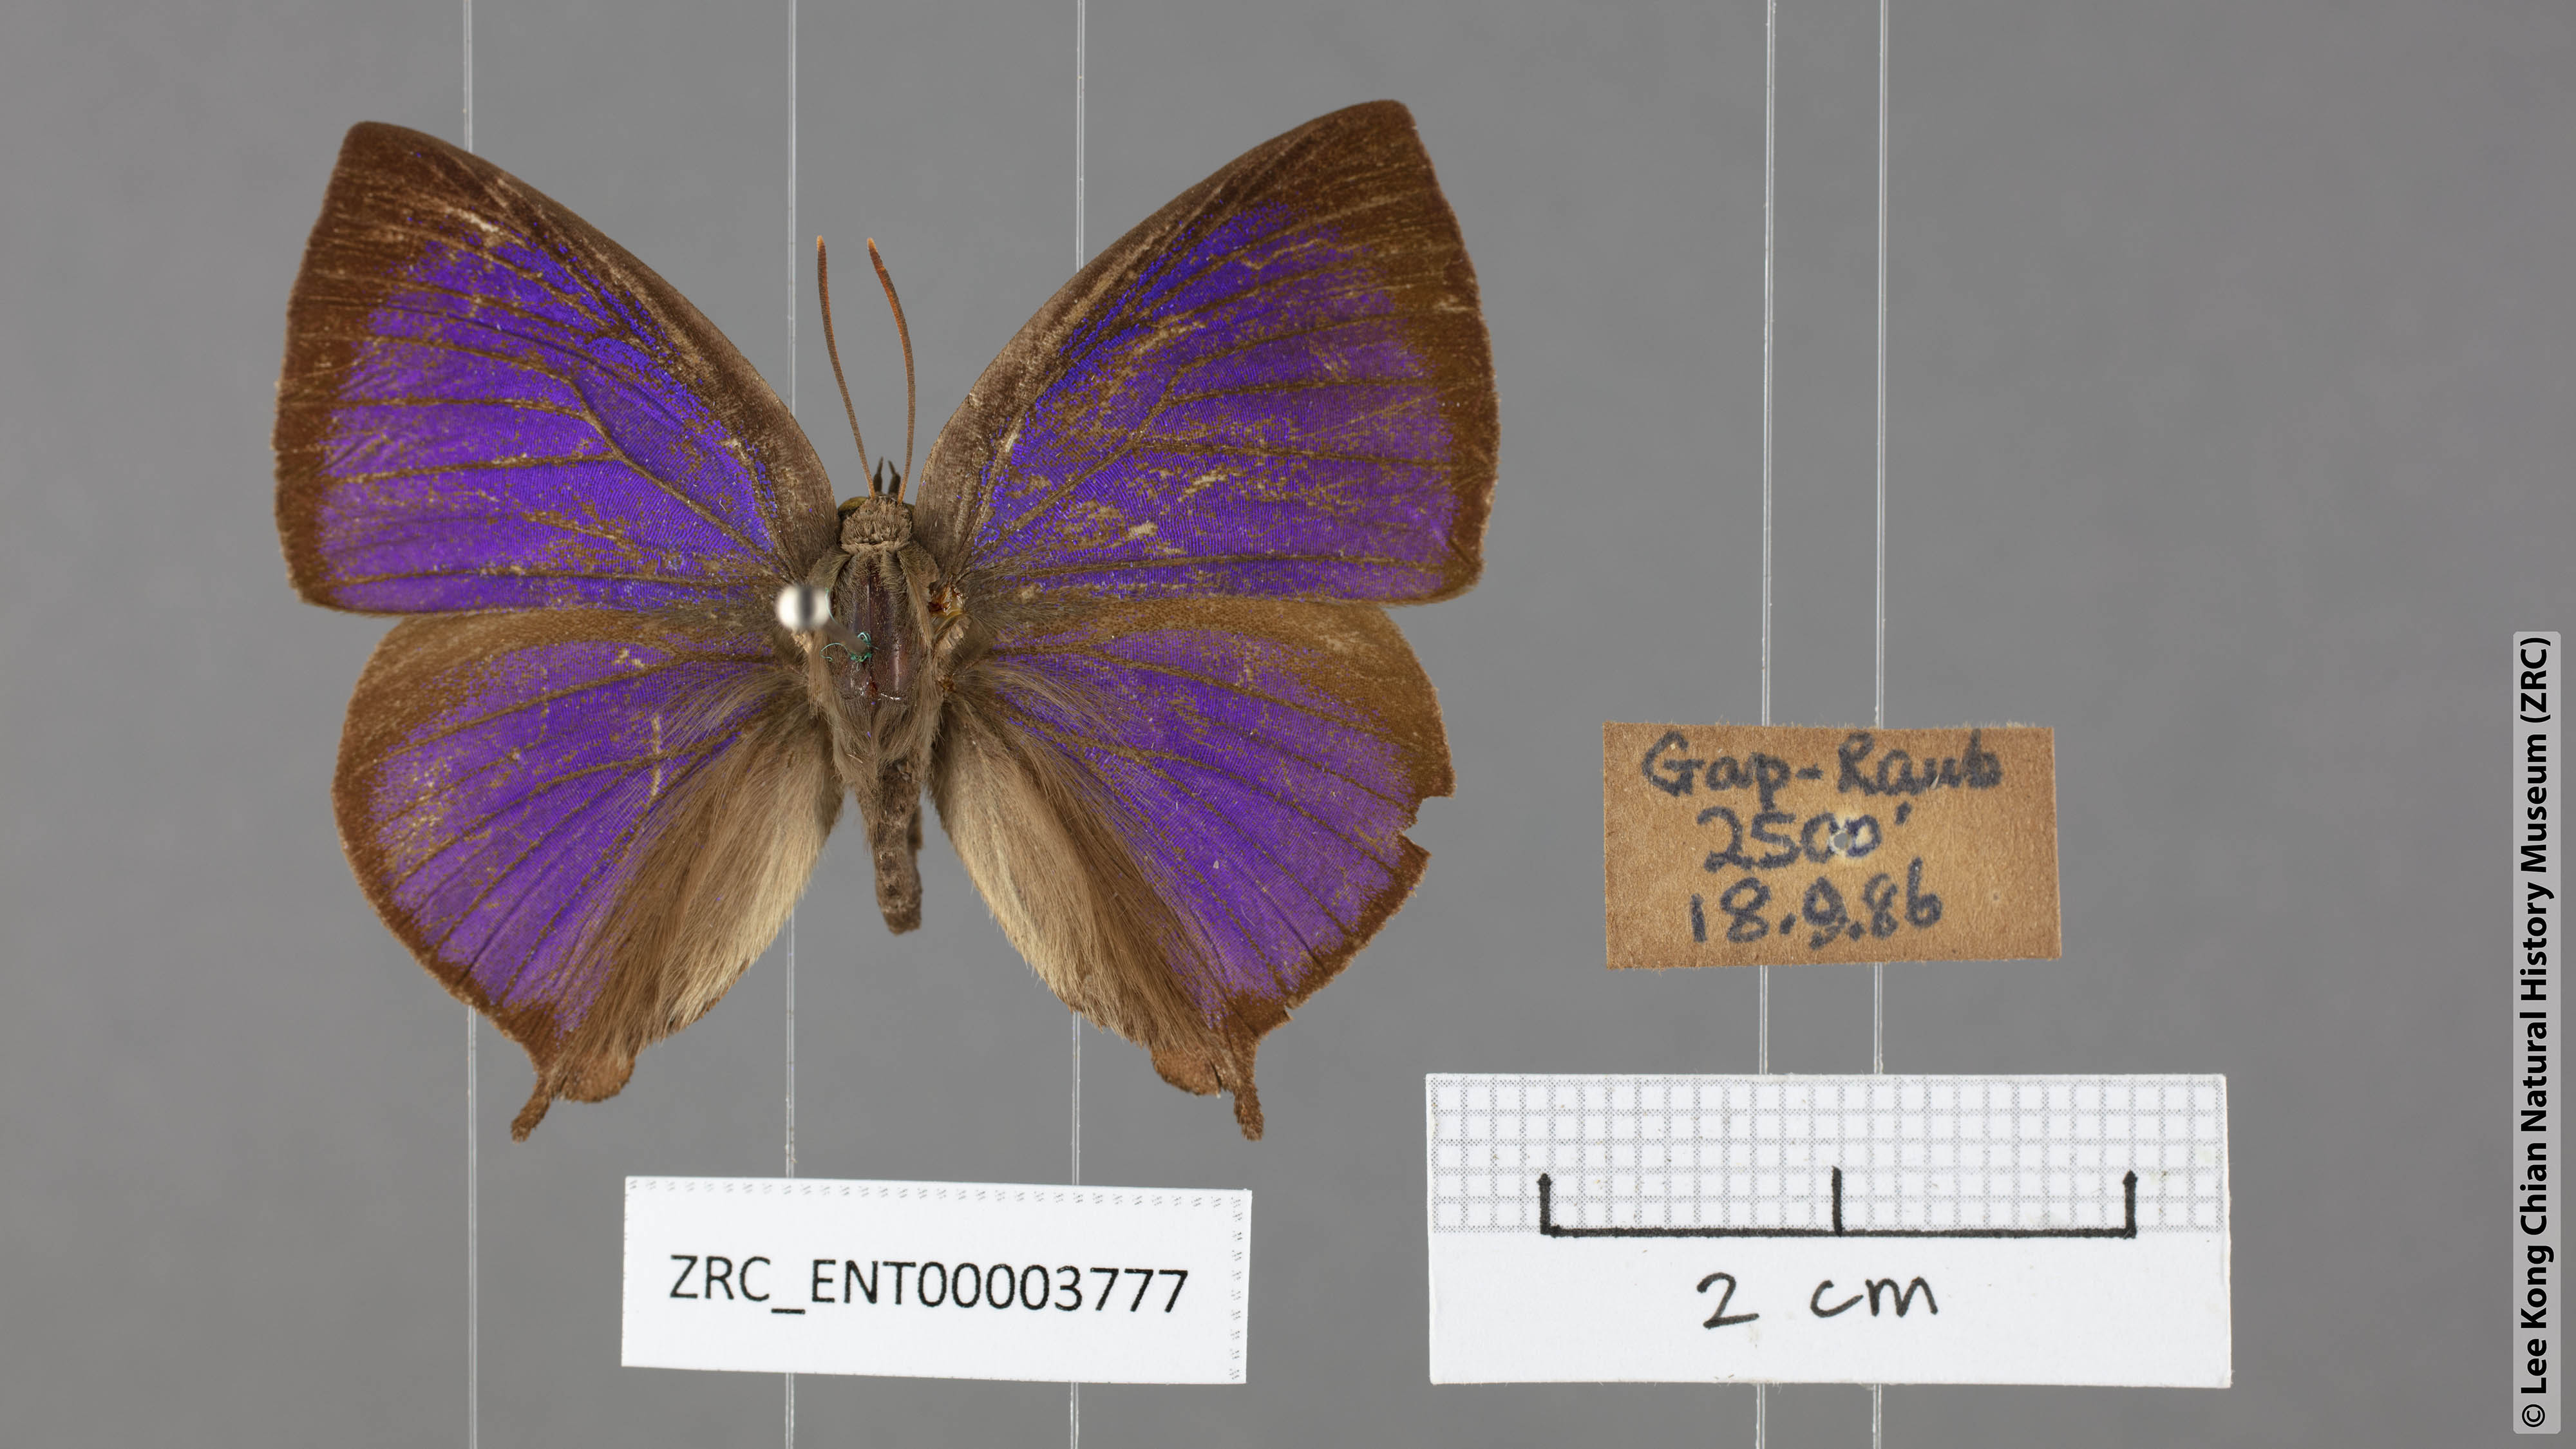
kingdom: Animalia
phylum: Arthropoda
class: Insecta
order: Lepidoptera
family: Lycaenidae
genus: Amblypodia
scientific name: Amblypodia narada
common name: Blue leaf blue
